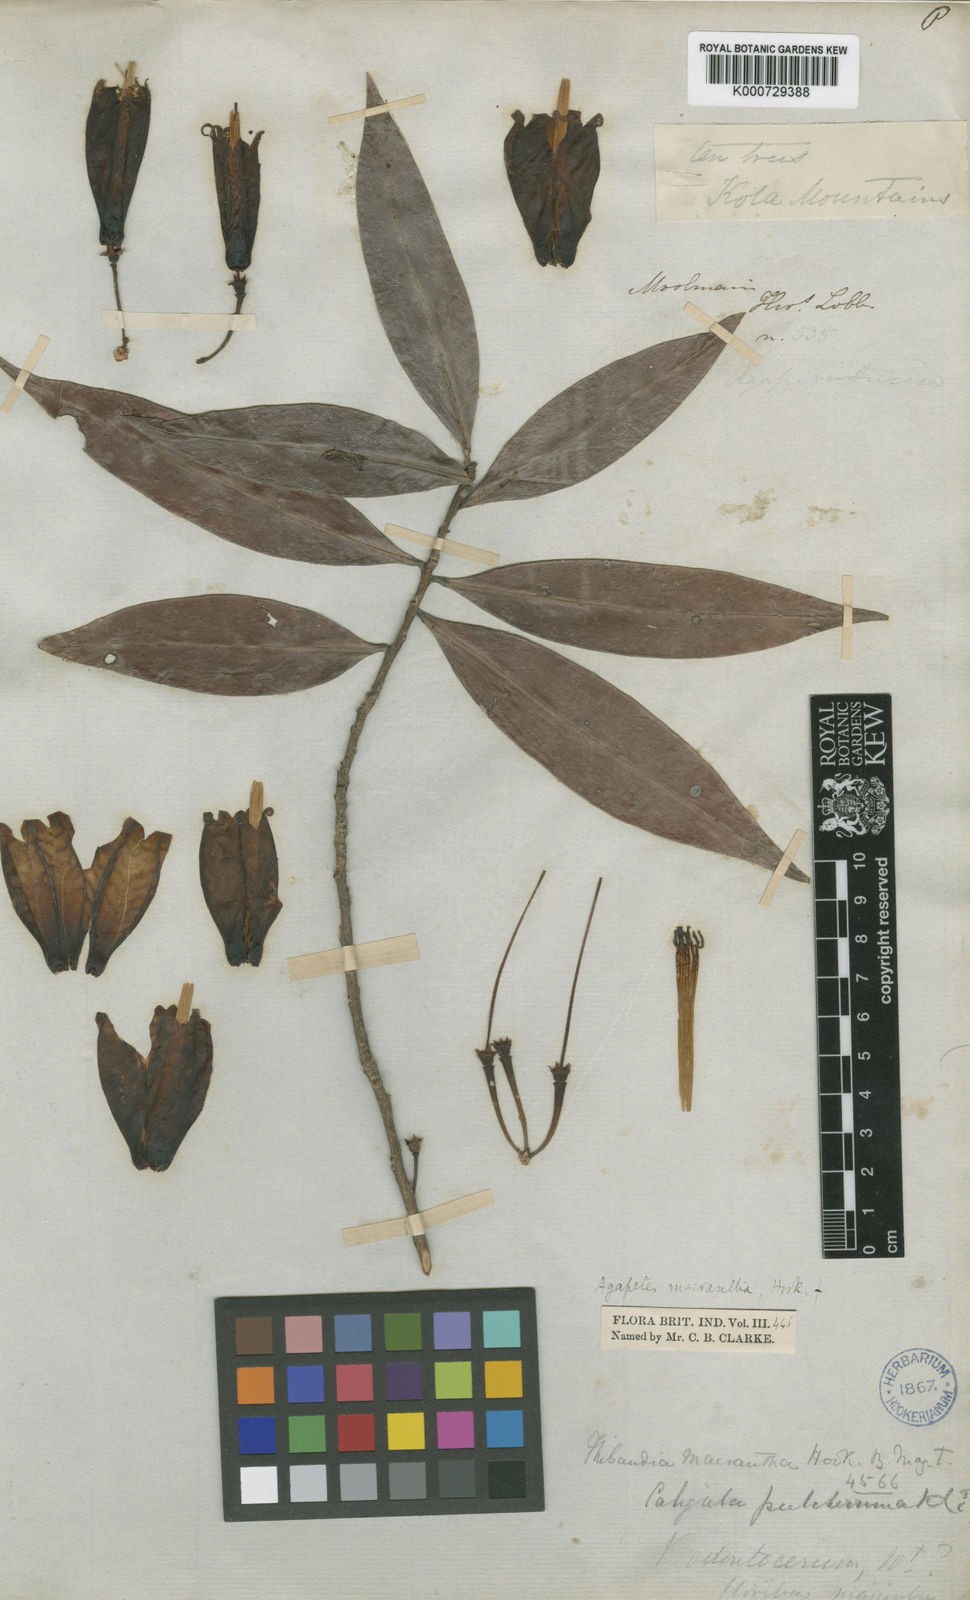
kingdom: Plantae
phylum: Tracheophyta
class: Magnoliopsida
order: Ericales
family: Ericaceae
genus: Agapetes
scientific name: Agapetes macrantha
